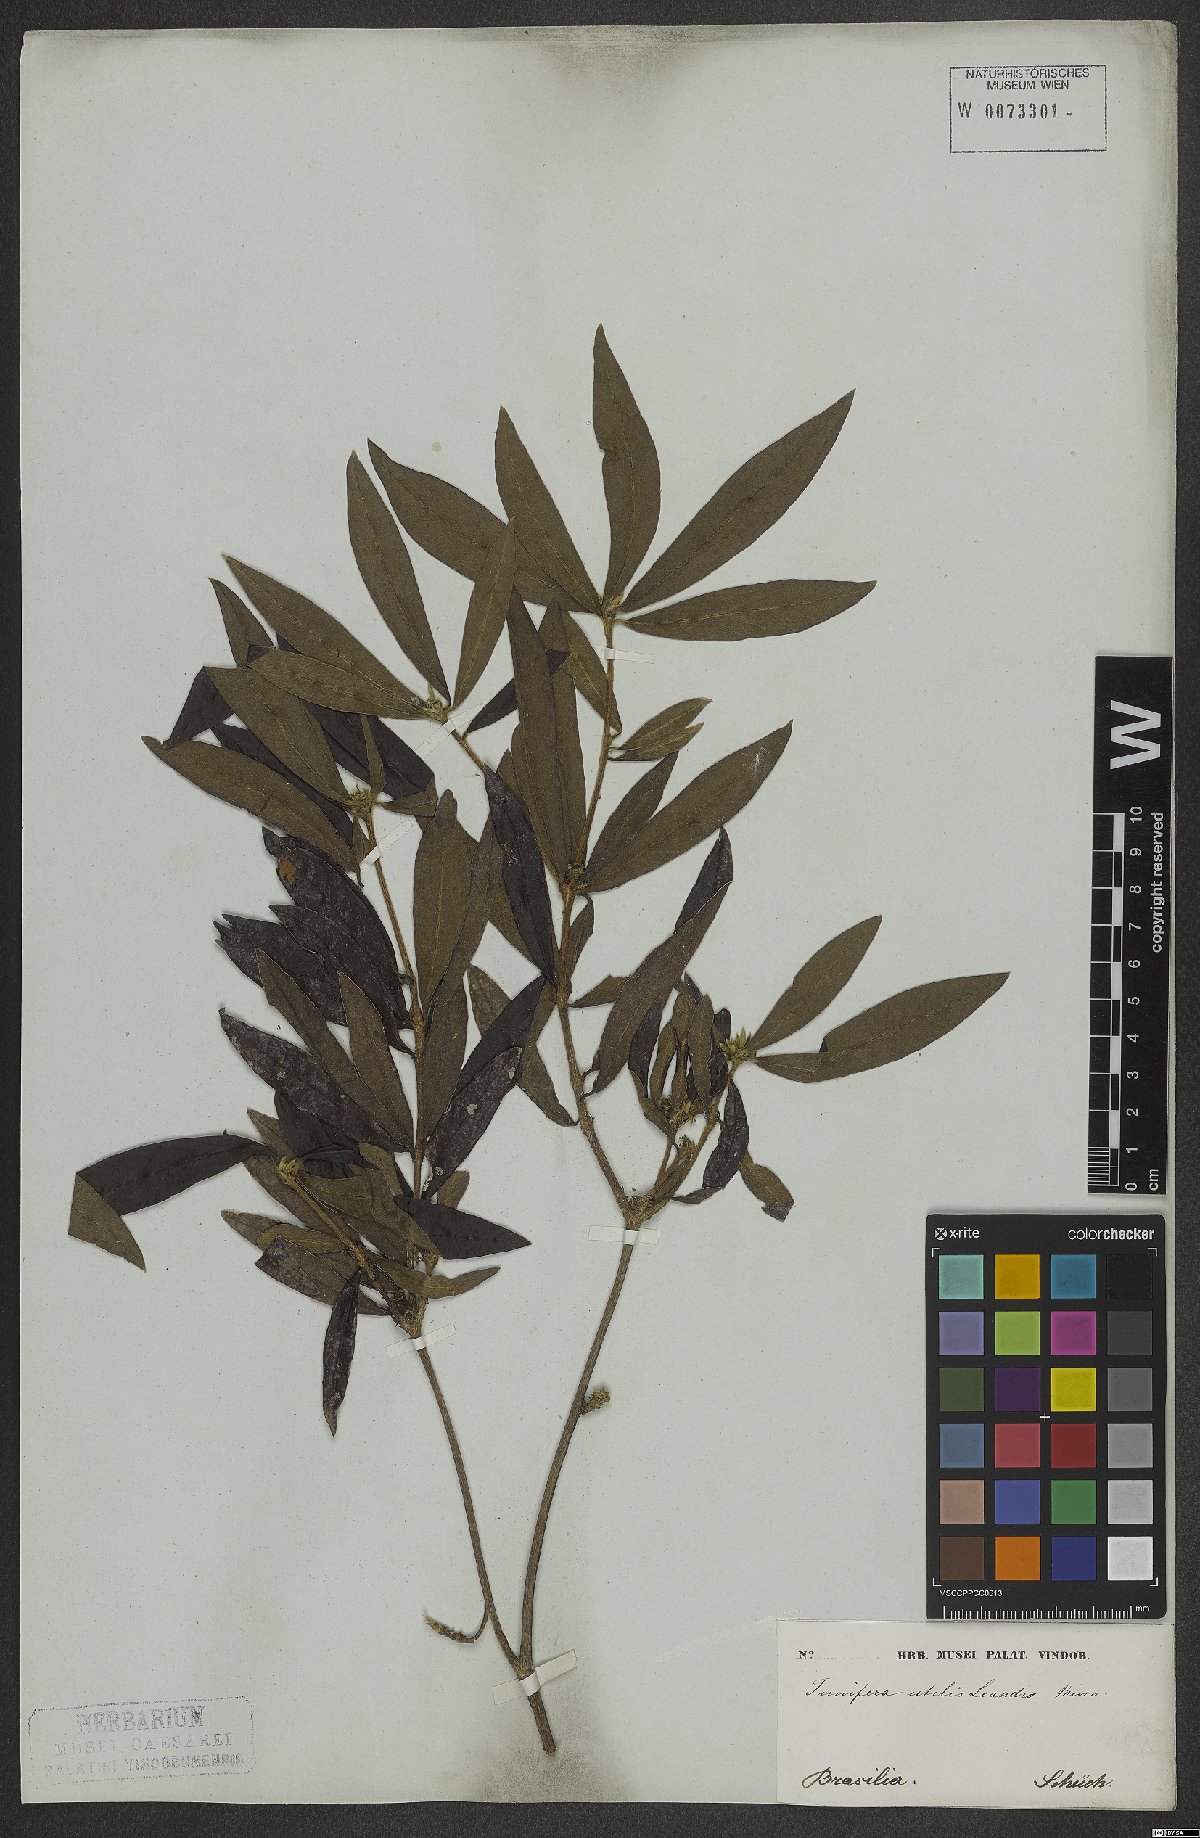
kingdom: Plantae
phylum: Tracheophyta
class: Magnoliopsida
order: Malvales
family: Thymelaeaceae
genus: Funifera
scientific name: Funifera brasiliensis
